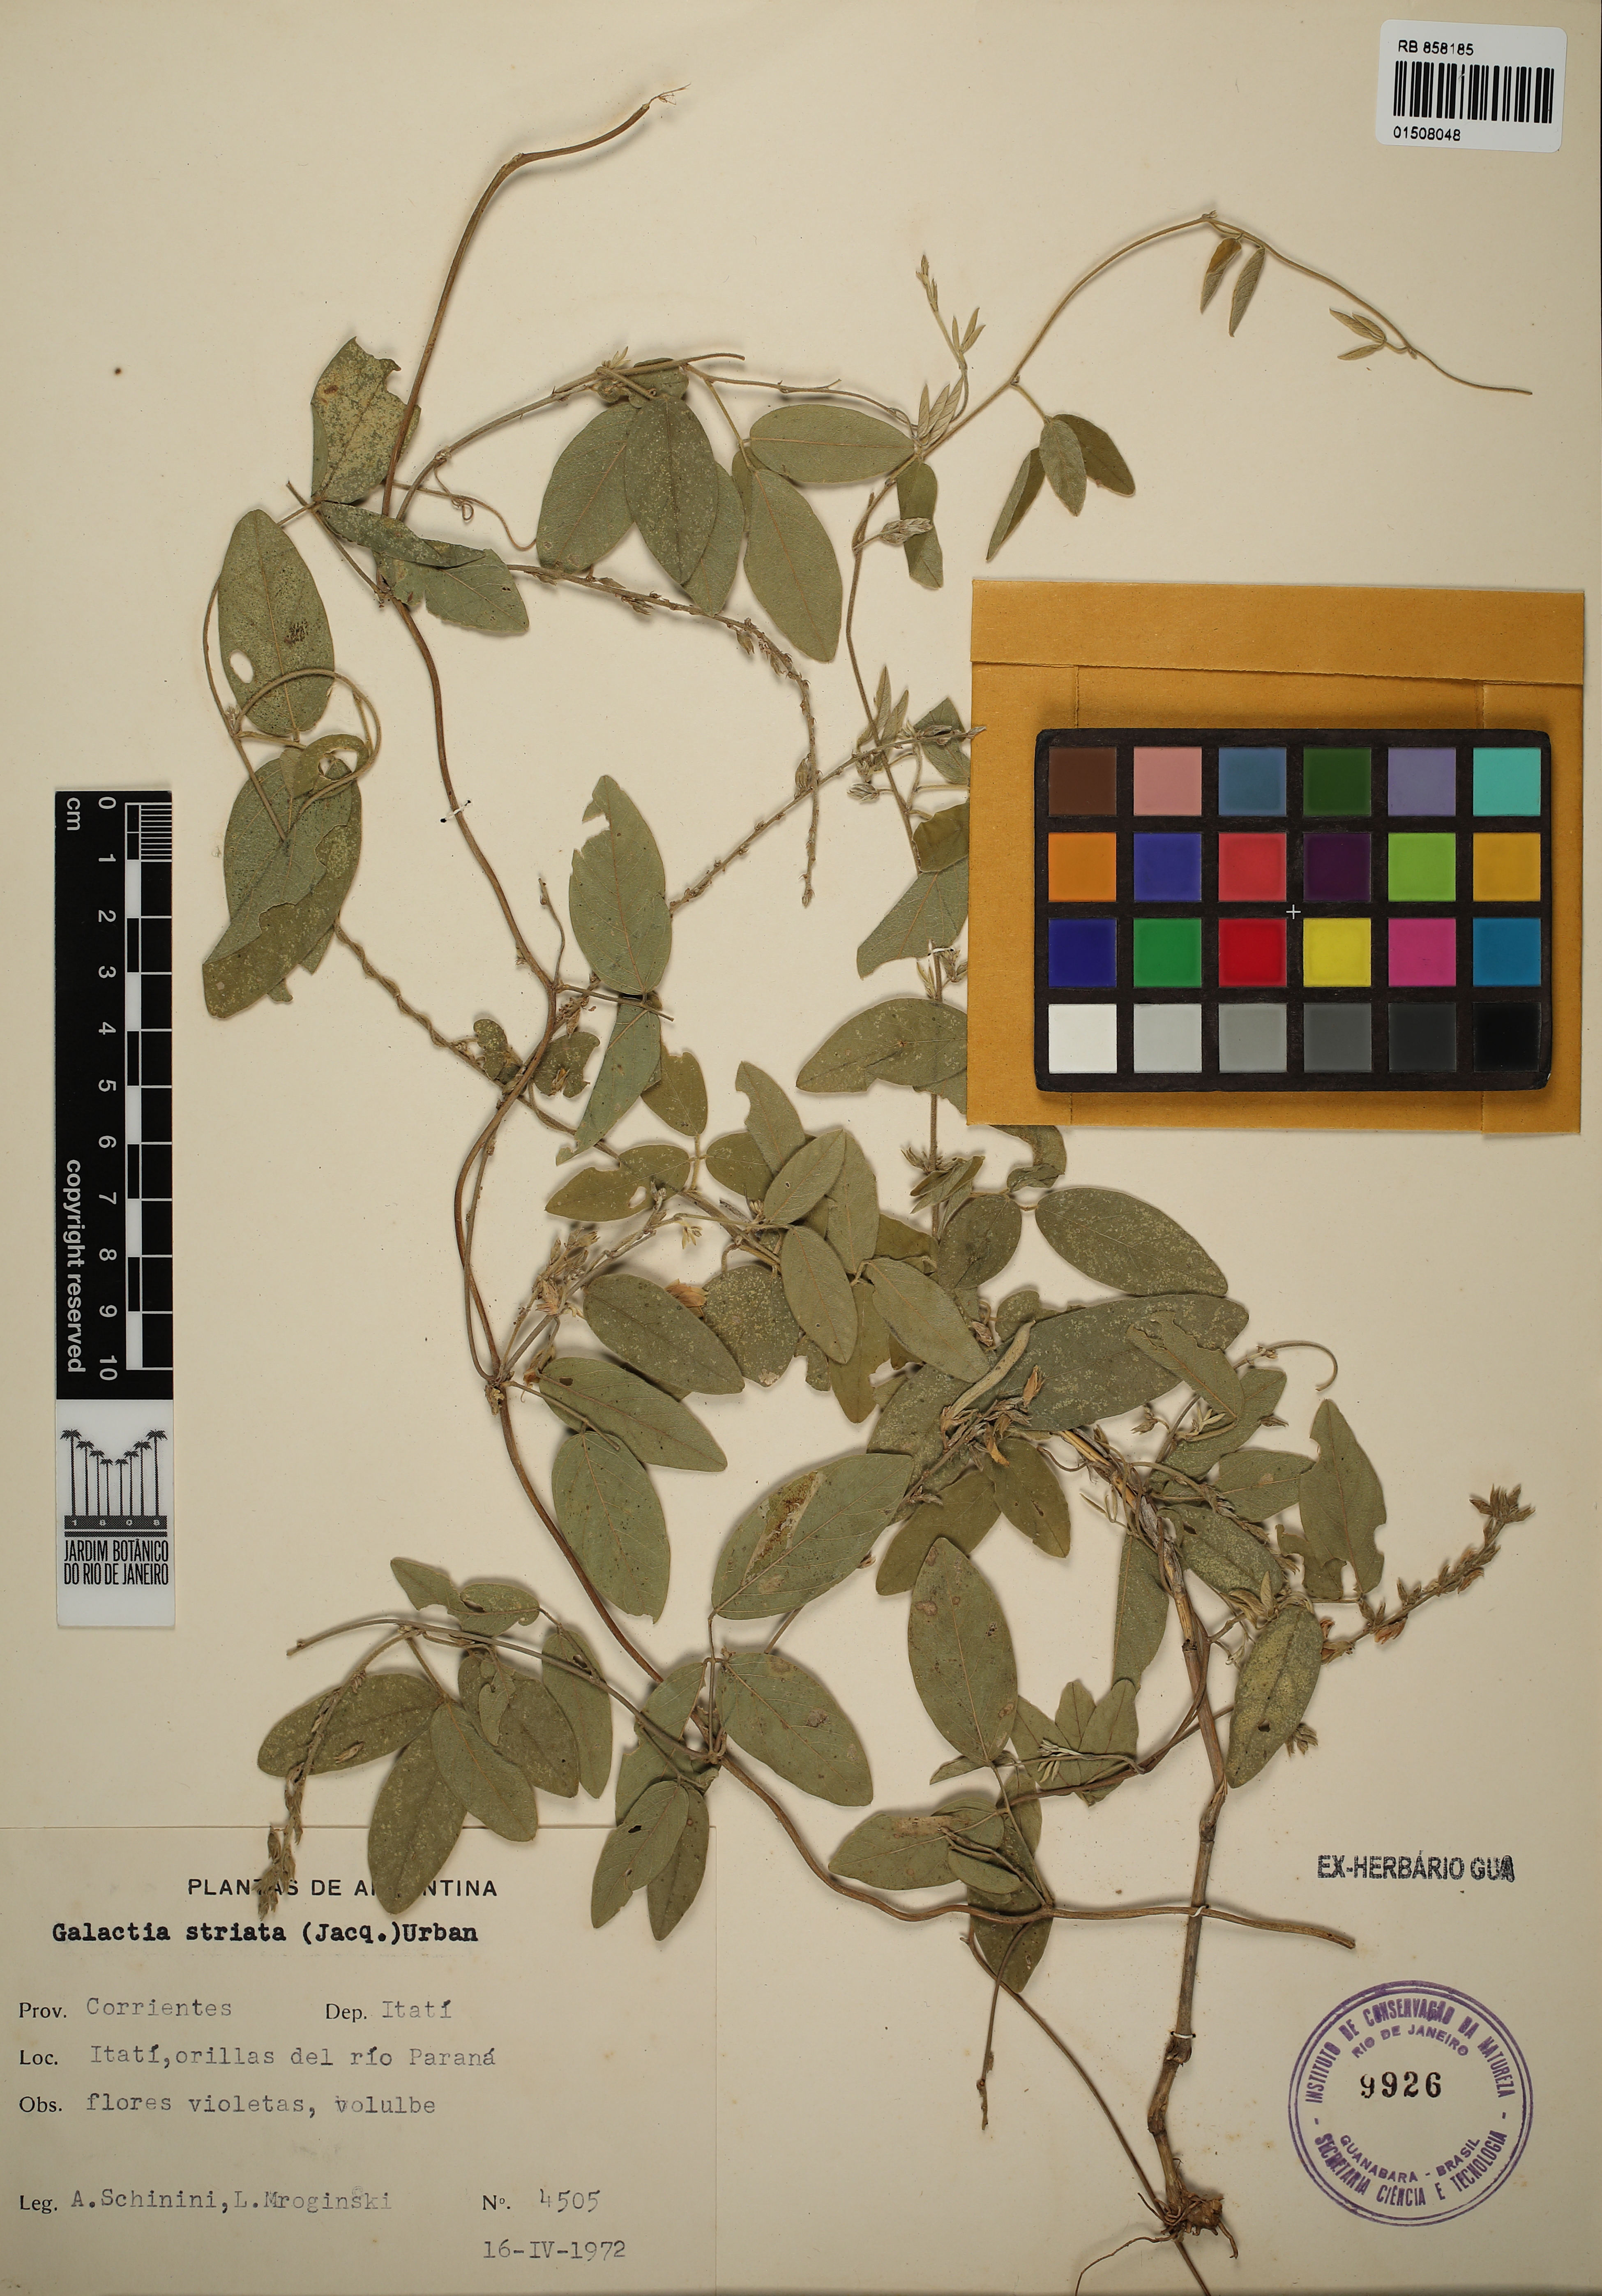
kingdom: Plantae
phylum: Tracheophyta
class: Magnoliopsida
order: Fabales
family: Fabaceae
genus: Galactia
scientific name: Galactia striata
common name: Florida hammock milkpea
